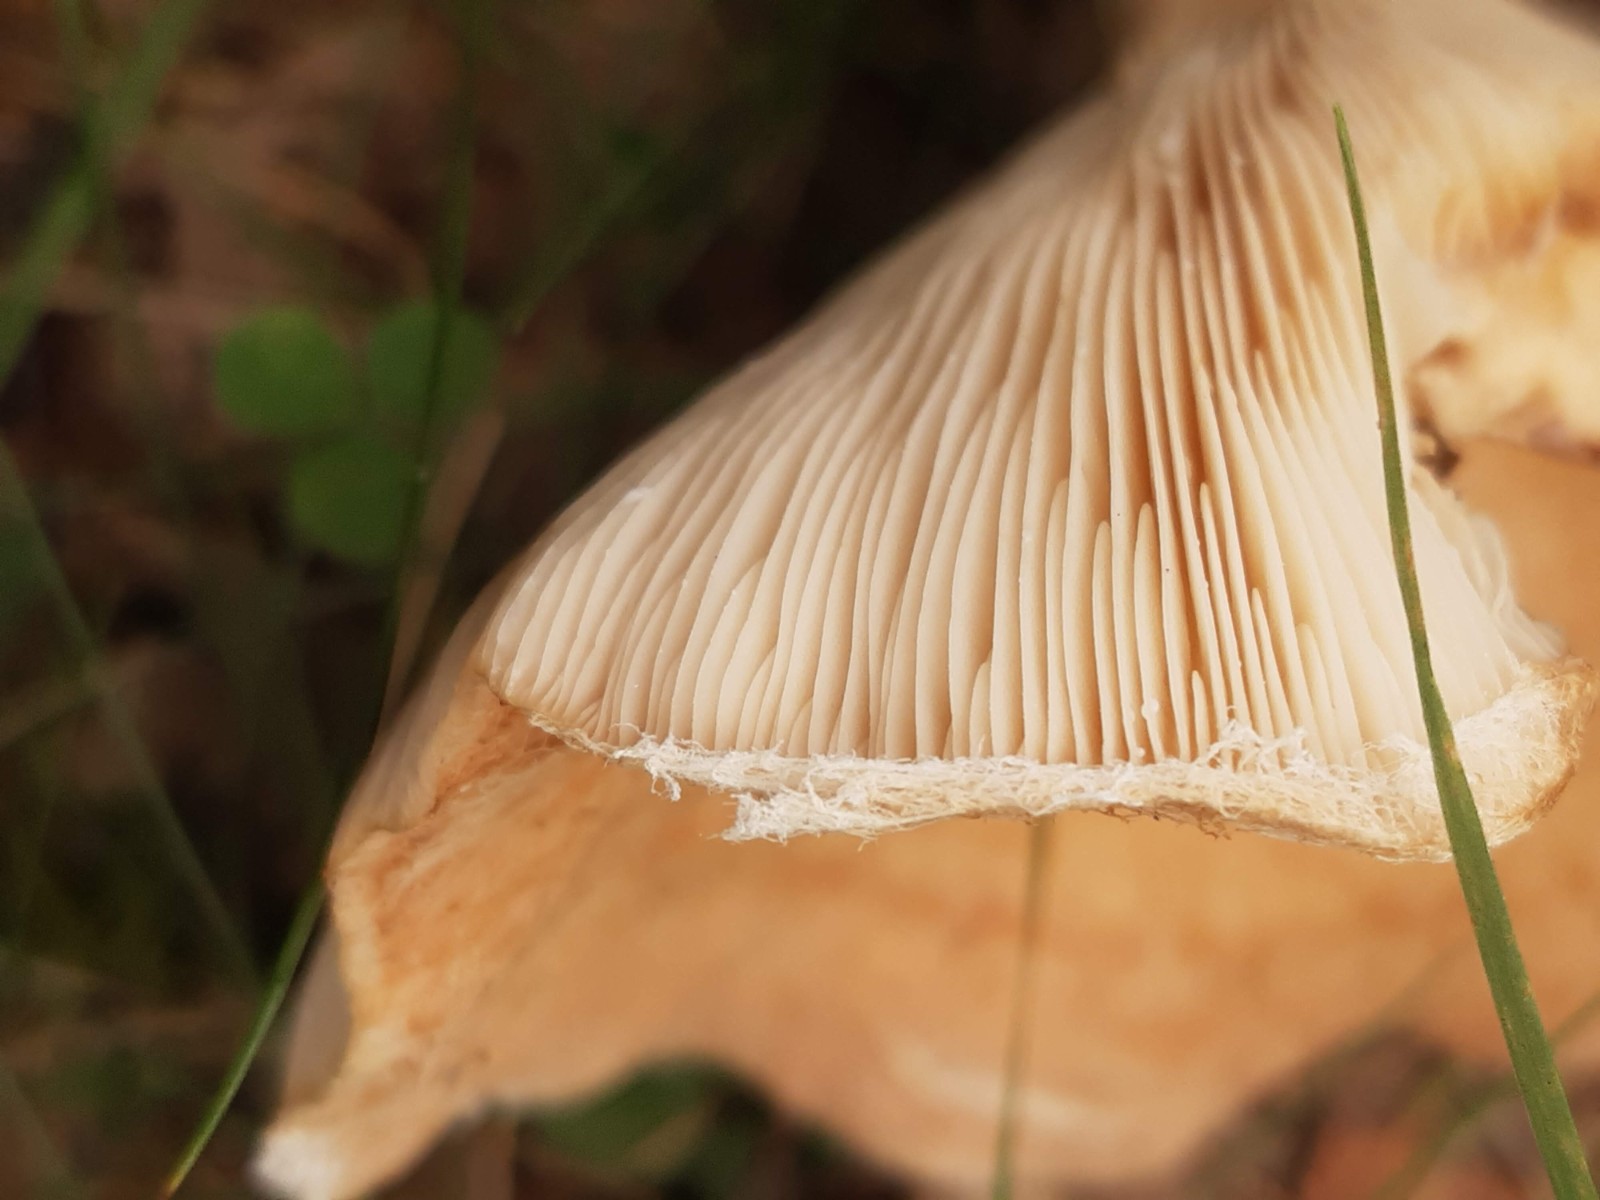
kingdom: Fungi
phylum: Basidiomycota
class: Agaricomycetes
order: Russulales
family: Russulaceae
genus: Lactarius
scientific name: Lactarius torminosus
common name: skægget mælkehat
